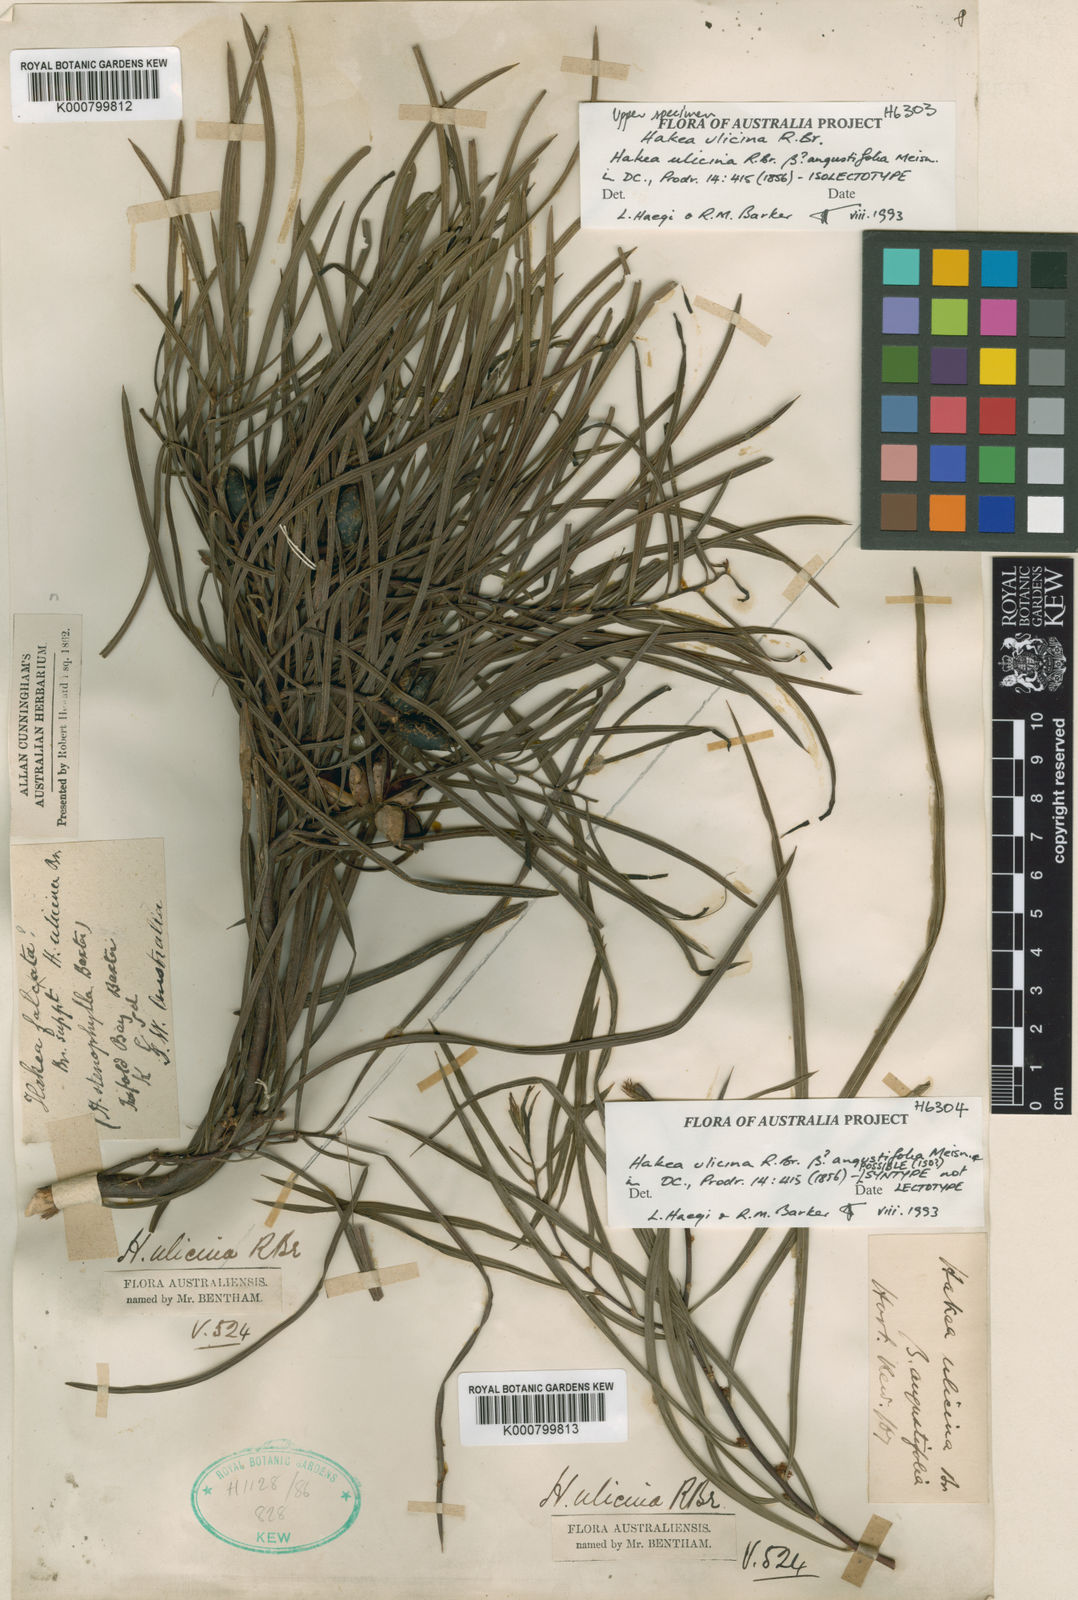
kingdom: Plantae
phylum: Tracheophyta
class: Magnoliopsida
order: Proteales
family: Proteaceae
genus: Hakea
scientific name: Hakea ulicina
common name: Furze hakea
